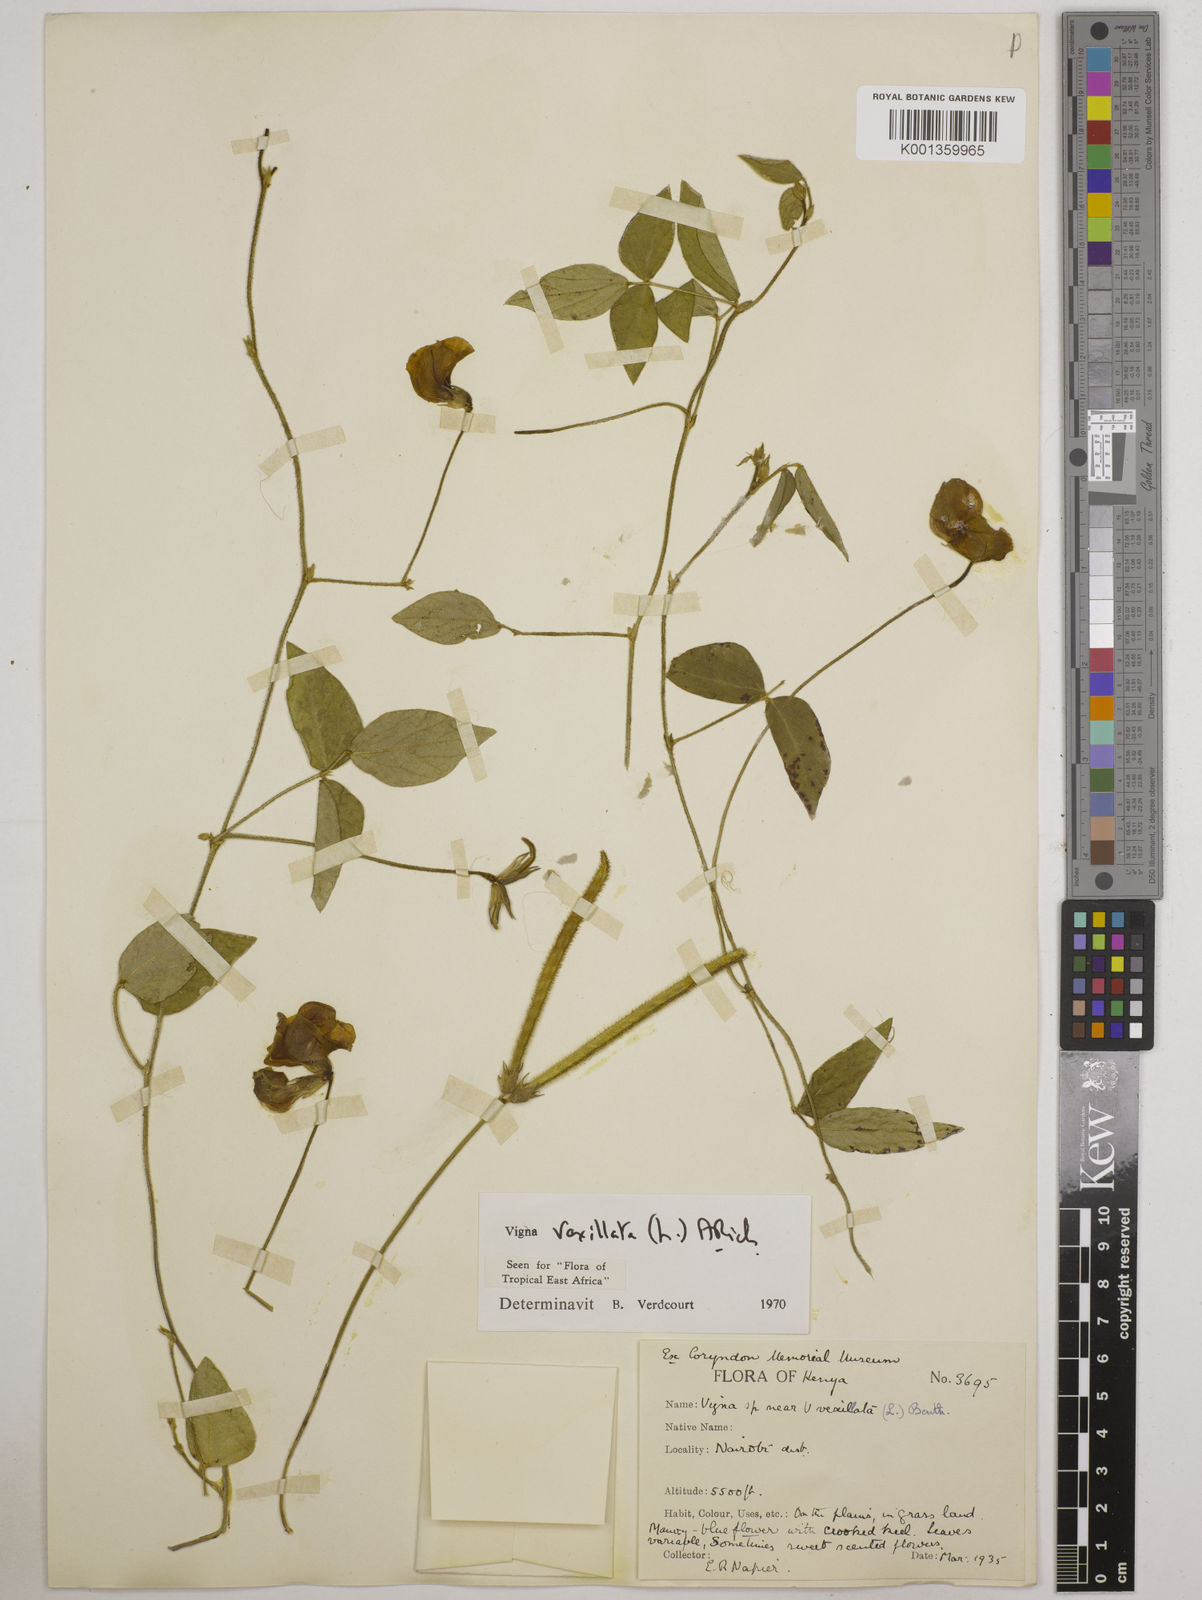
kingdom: Plantae
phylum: Tracheophyta
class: Magnoliopsida
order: Fabales
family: Fabaceae
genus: Vigna
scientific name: Vigna vexillata
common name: Zombi pea
